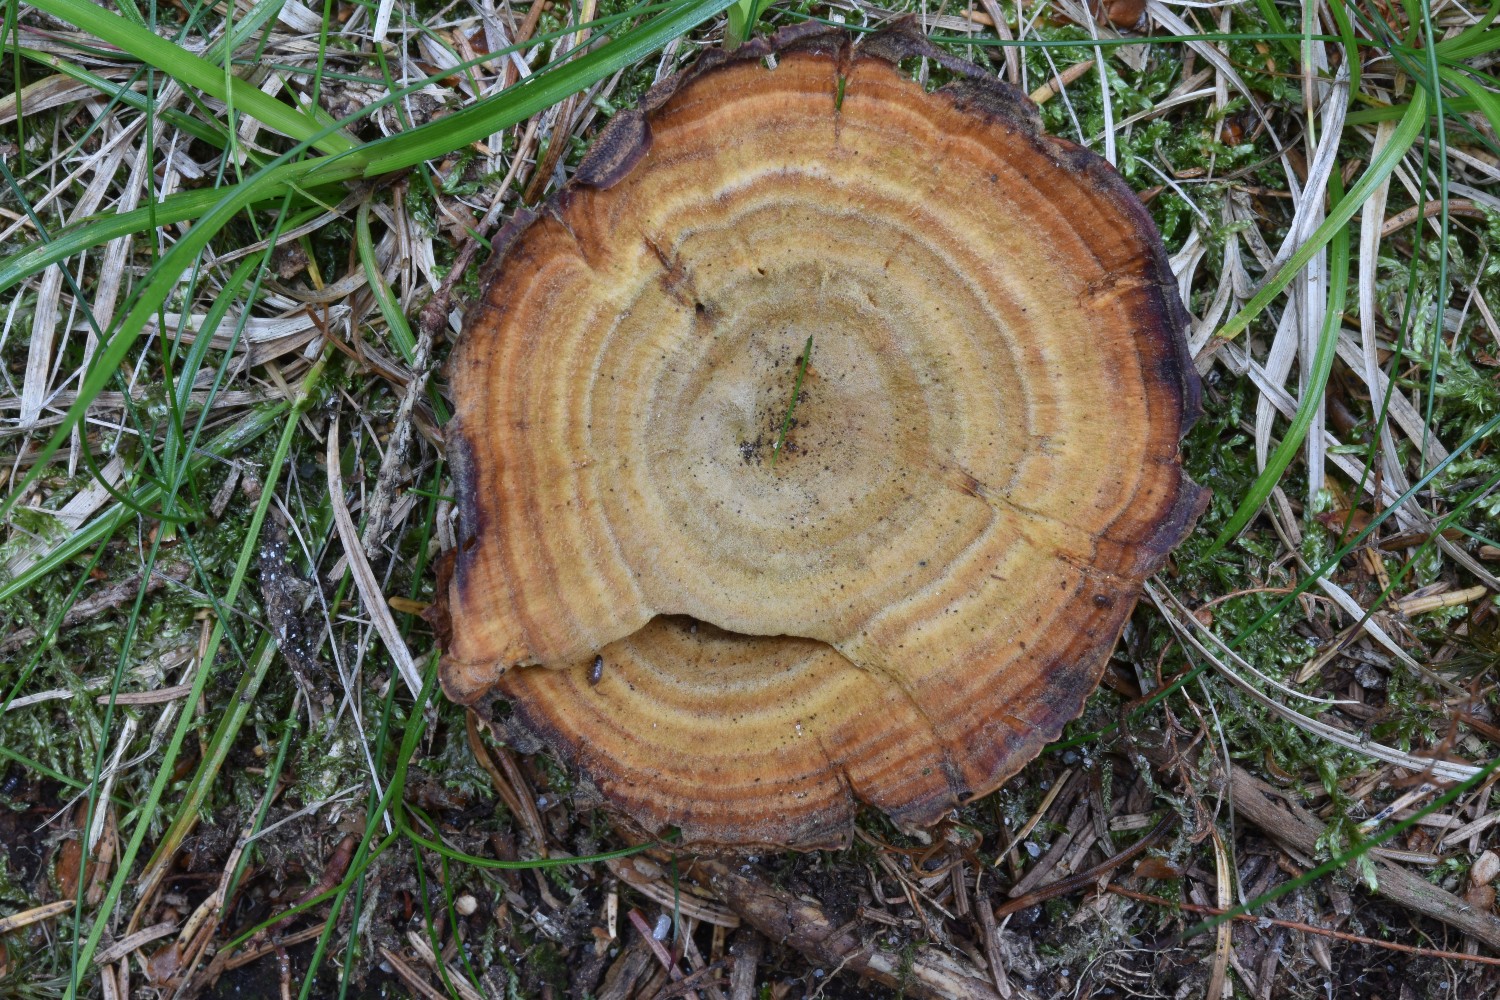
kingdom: Fungi
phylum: Basidiomycota
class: Agaricomycetes
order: Hymenochaetales
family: Hymenochaetaceae
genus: Coltricia
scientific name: Coltricia perennis
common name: almindelig sandporesvamp
